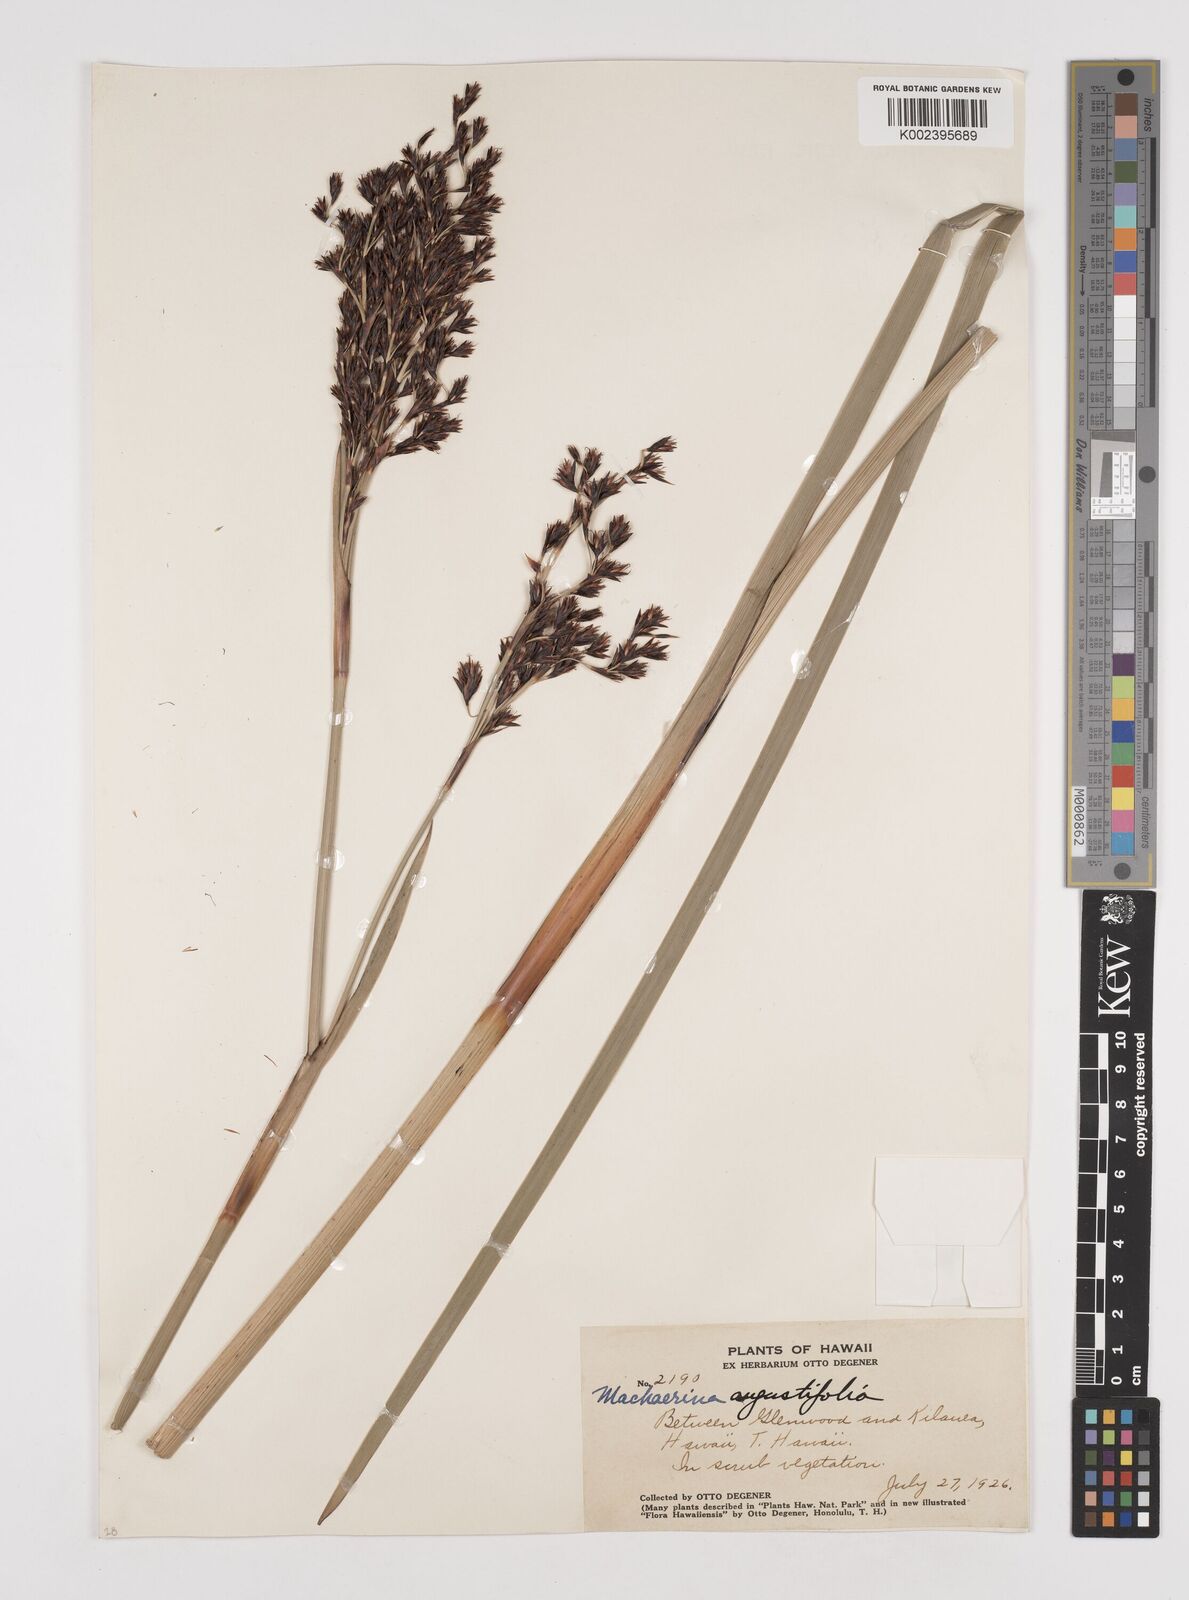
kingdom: Plantae
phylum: Tracheophyta
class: Liliopsida
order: Poales
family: Cyperaceae
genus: Machaerina
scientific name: Machaerina angustifolia
